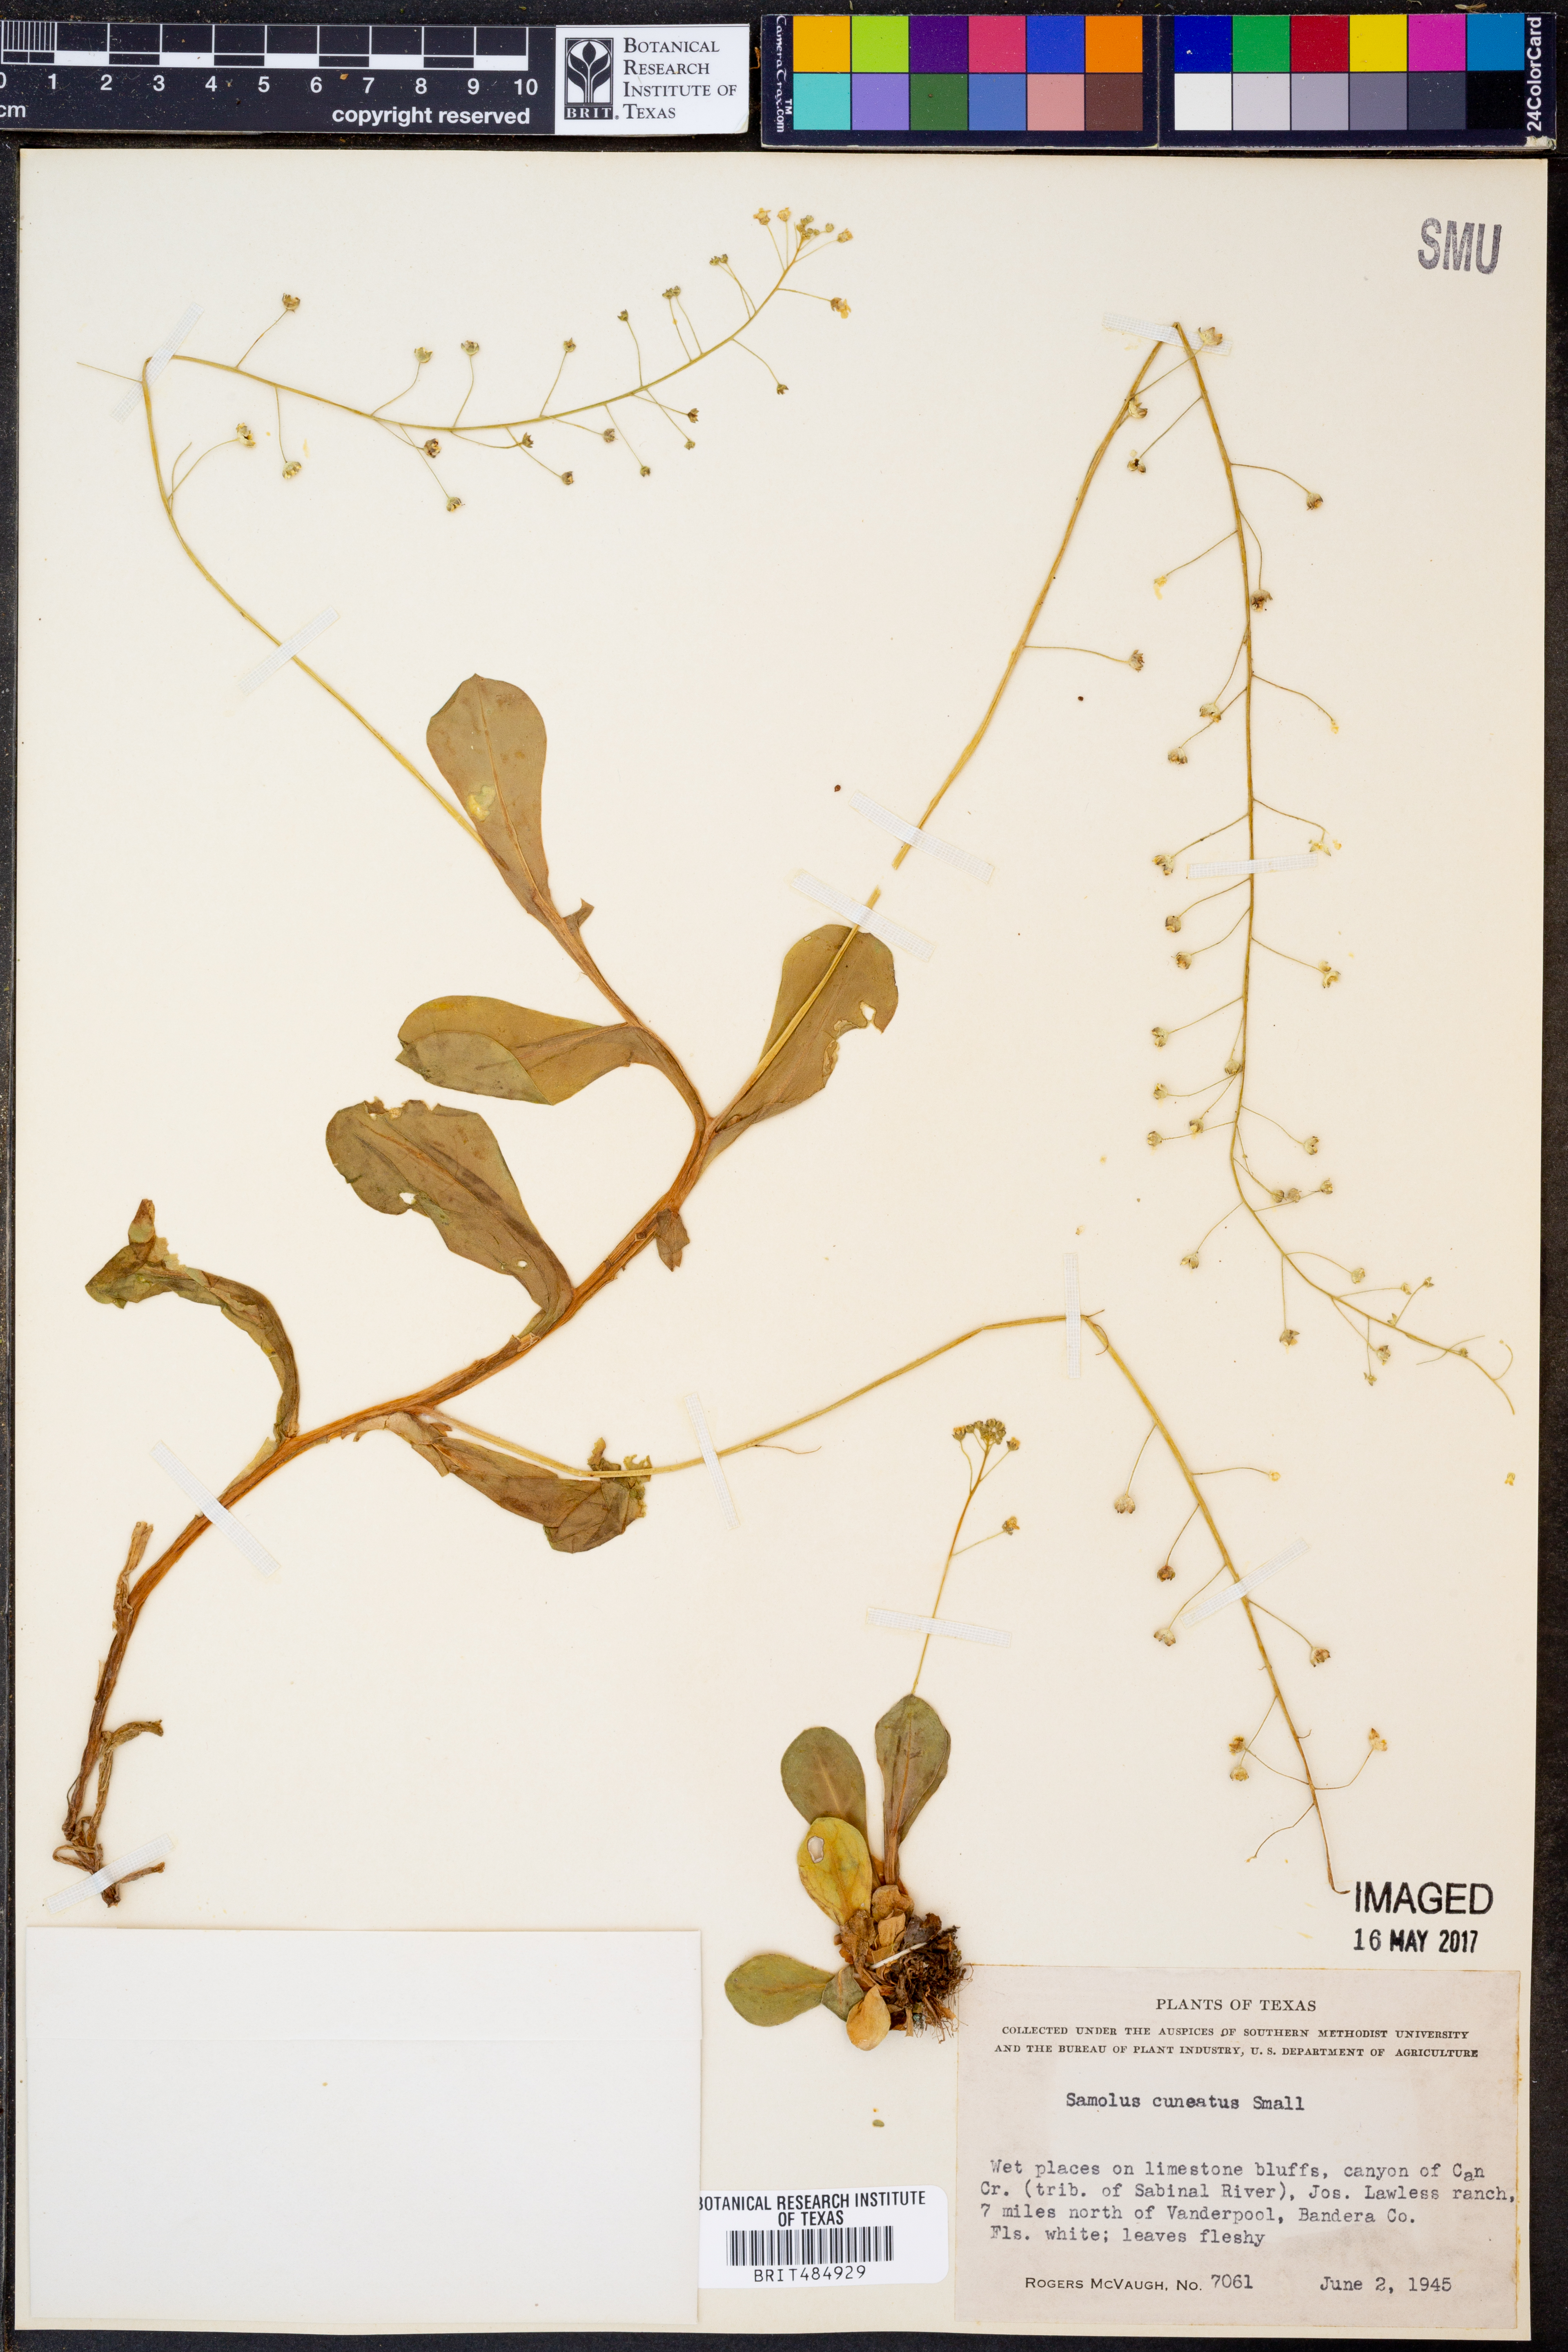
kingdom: Plantae
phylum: Tracheophyta
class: Magnoliopsida
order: Ericales
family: Primulaceae
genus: Samolus
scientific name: Samolus ebracteatus
